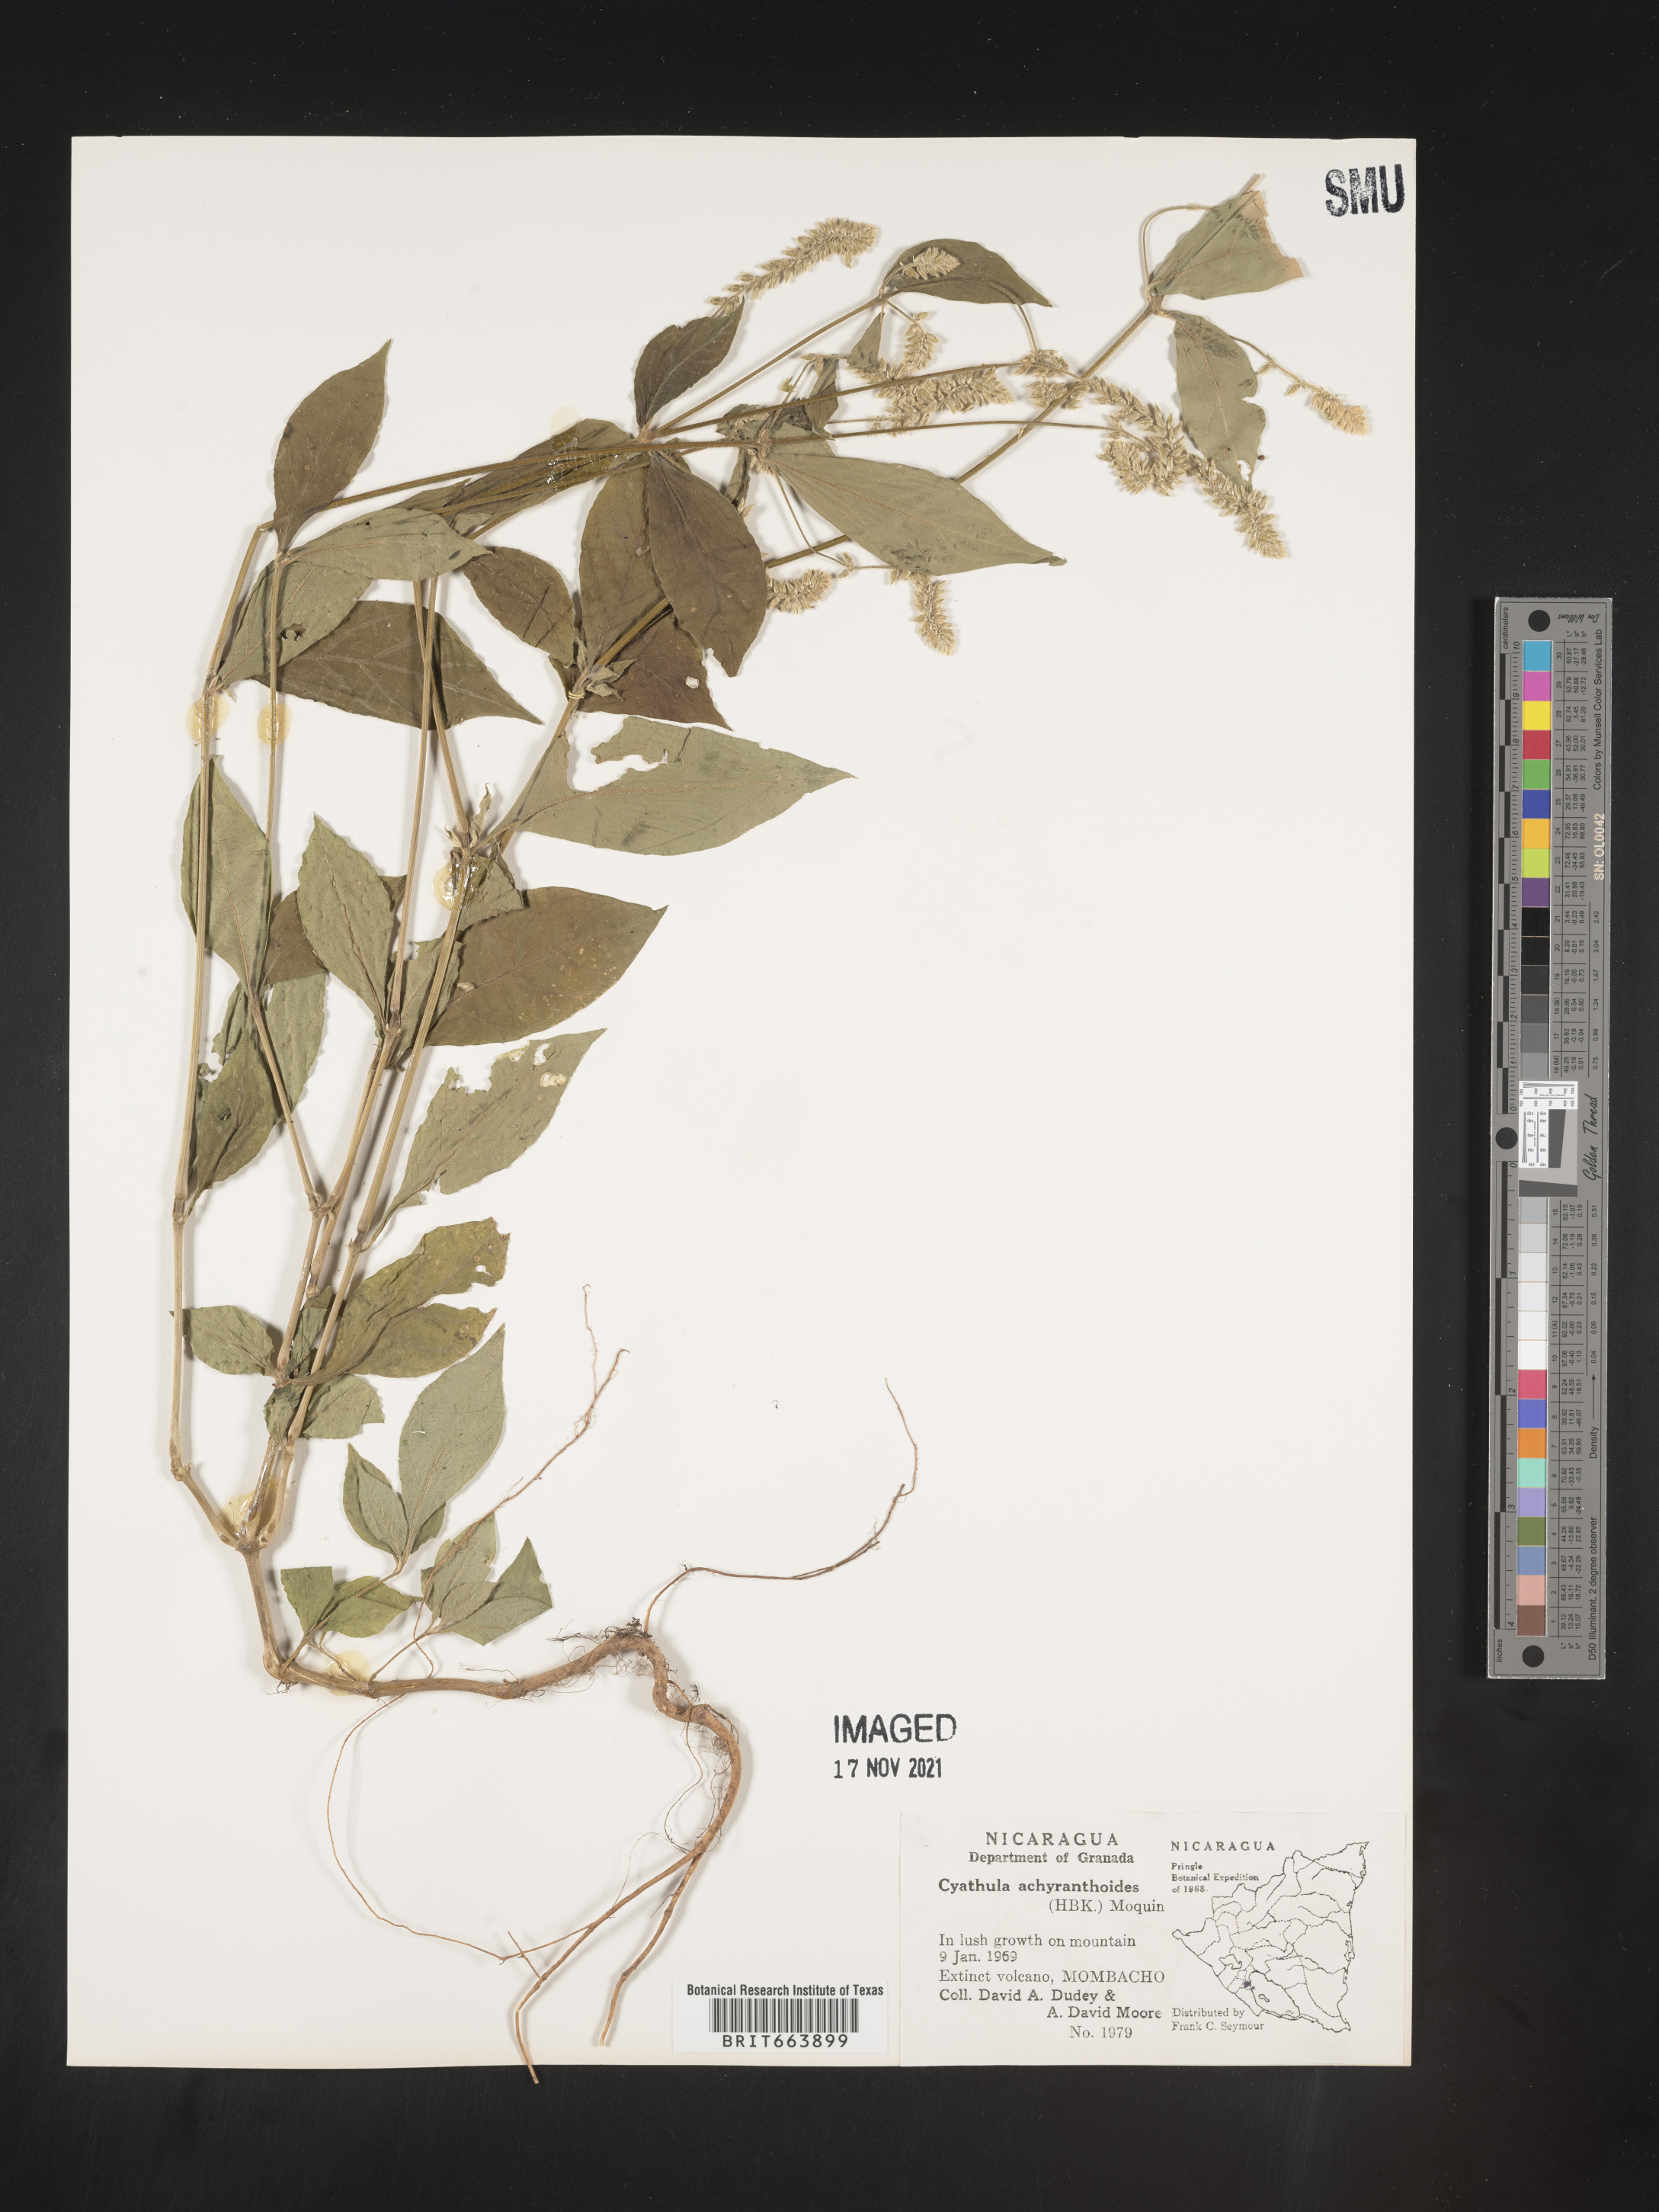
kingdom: Plantae
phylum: Tracheophyta
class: Magnoliopsida
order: Caryophyllales
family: Amaranthaceae
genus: Cyathula
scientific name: Cyathula
